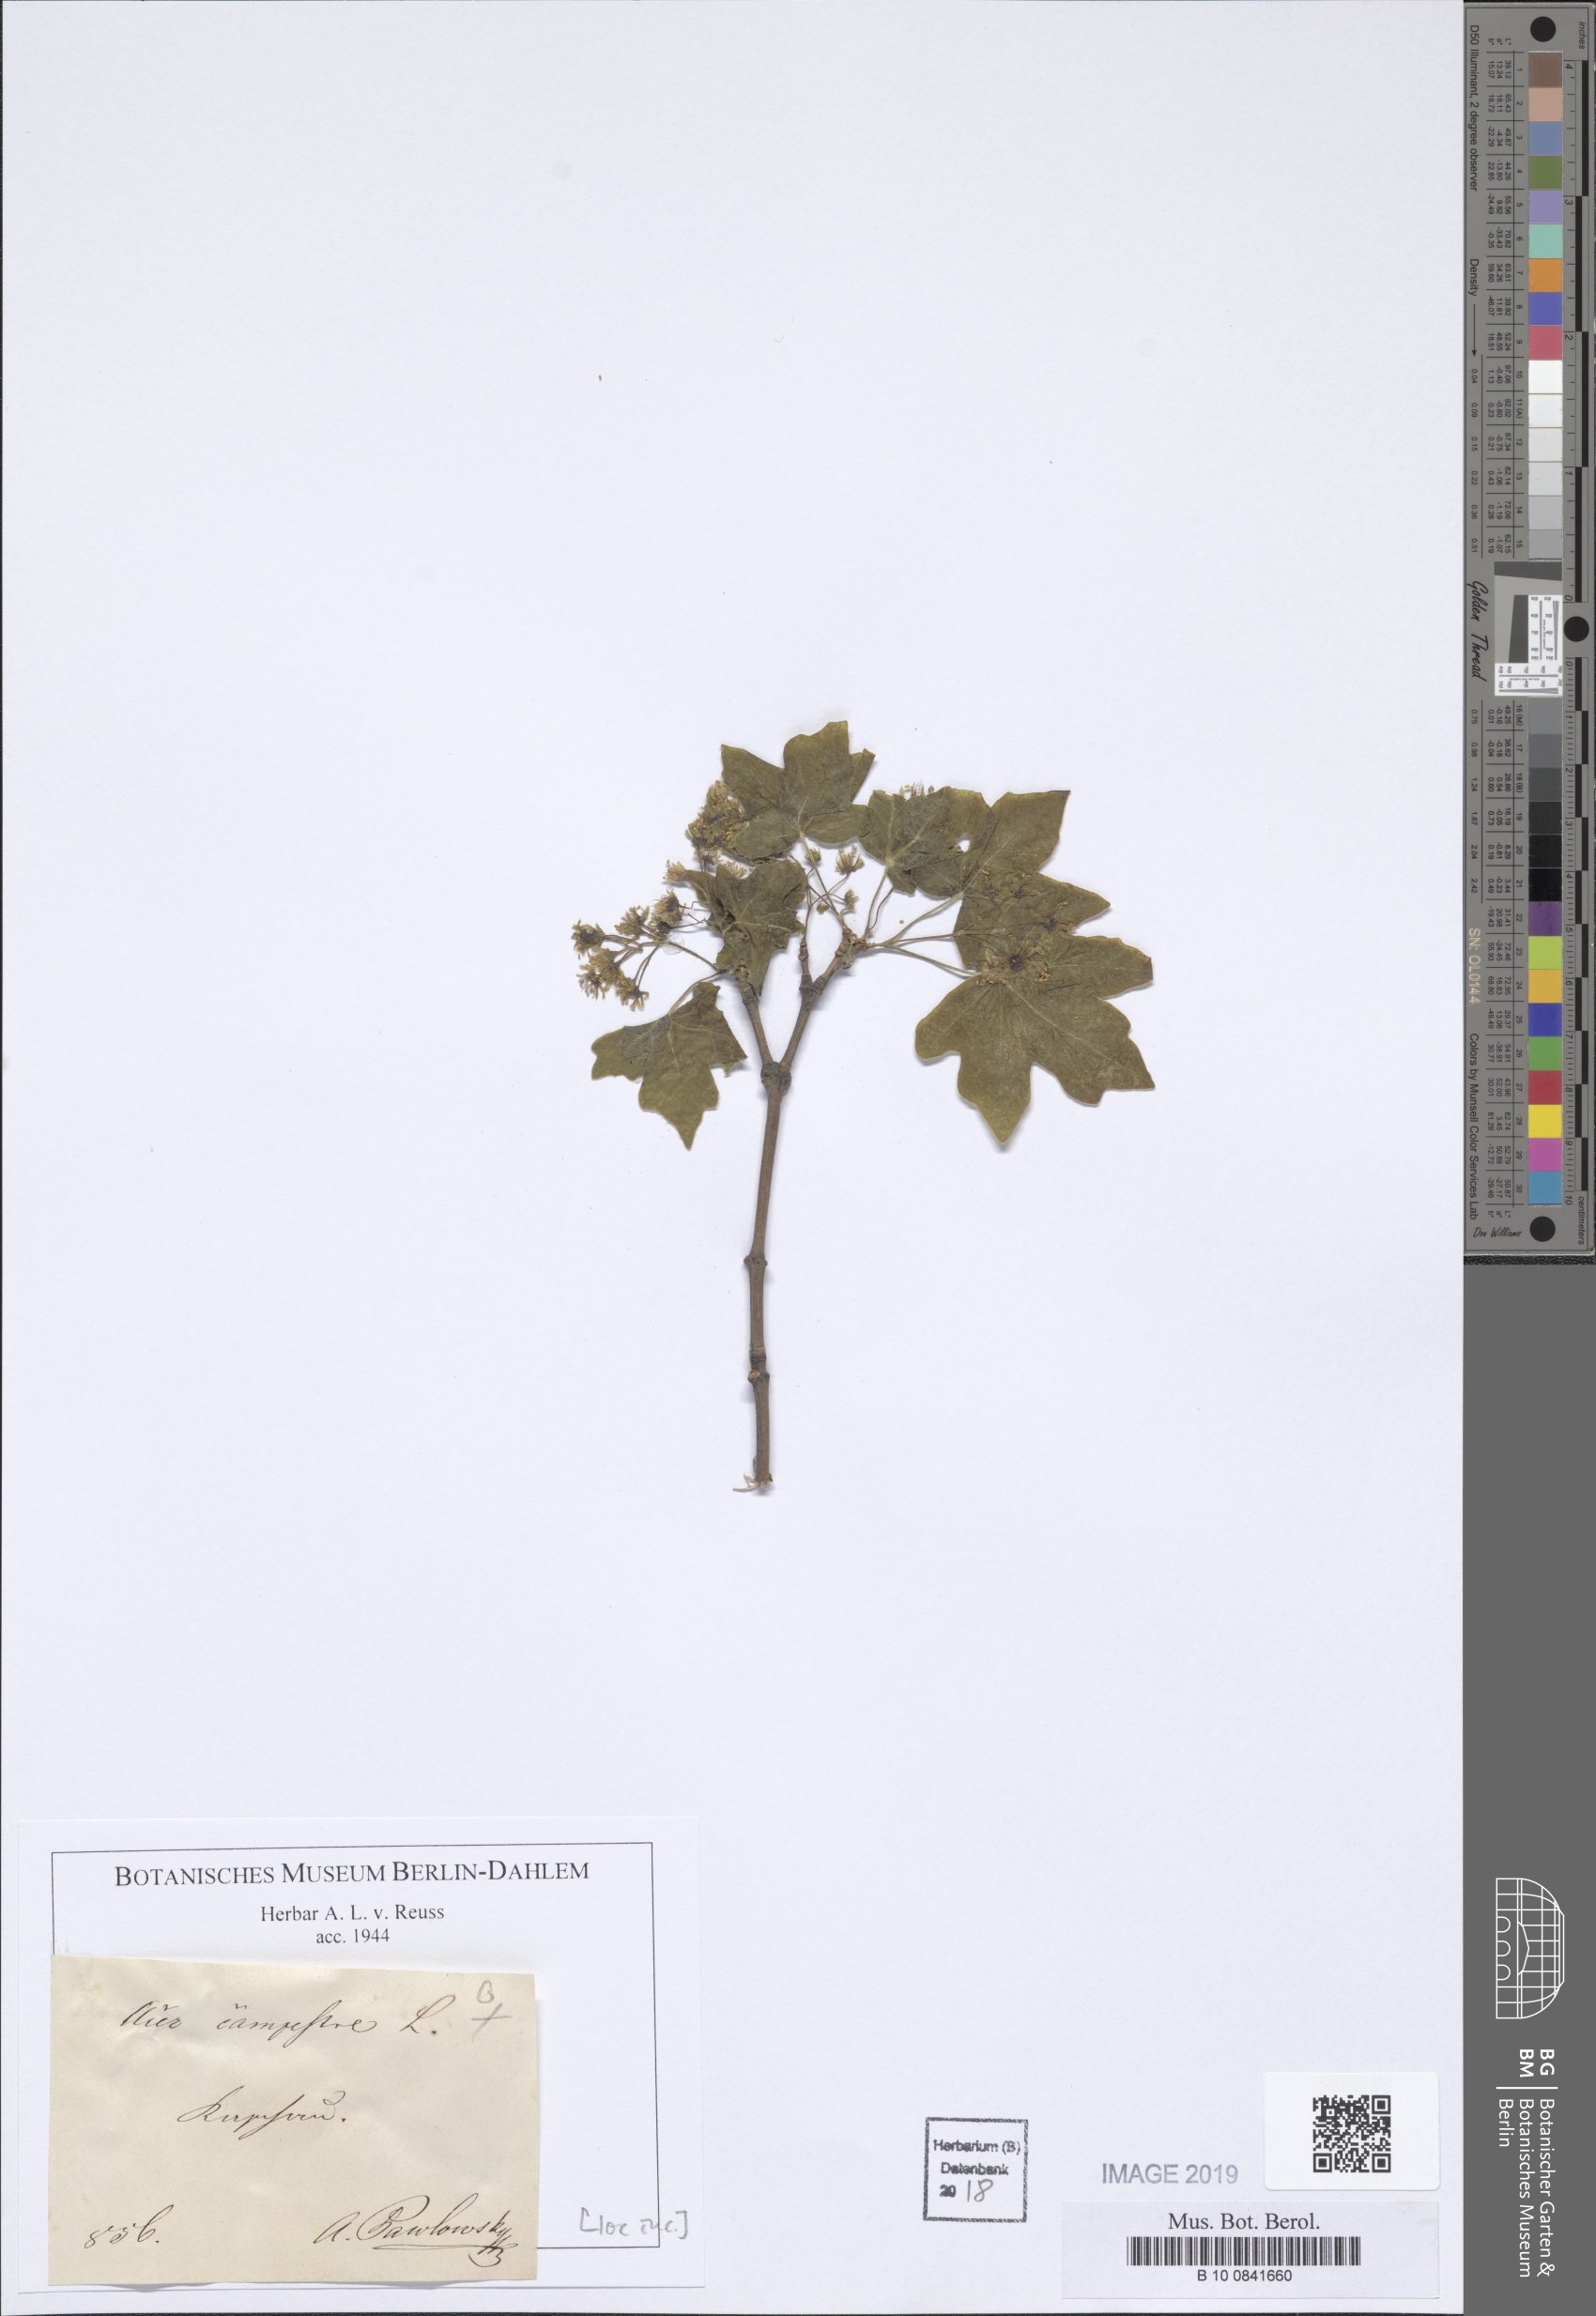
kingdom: Plantae
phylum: Tracheophyta
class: Magnoliopsida
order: Sapindales
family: Sapindaceae
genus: Acer
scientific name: Acer campestre
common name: Field maple
